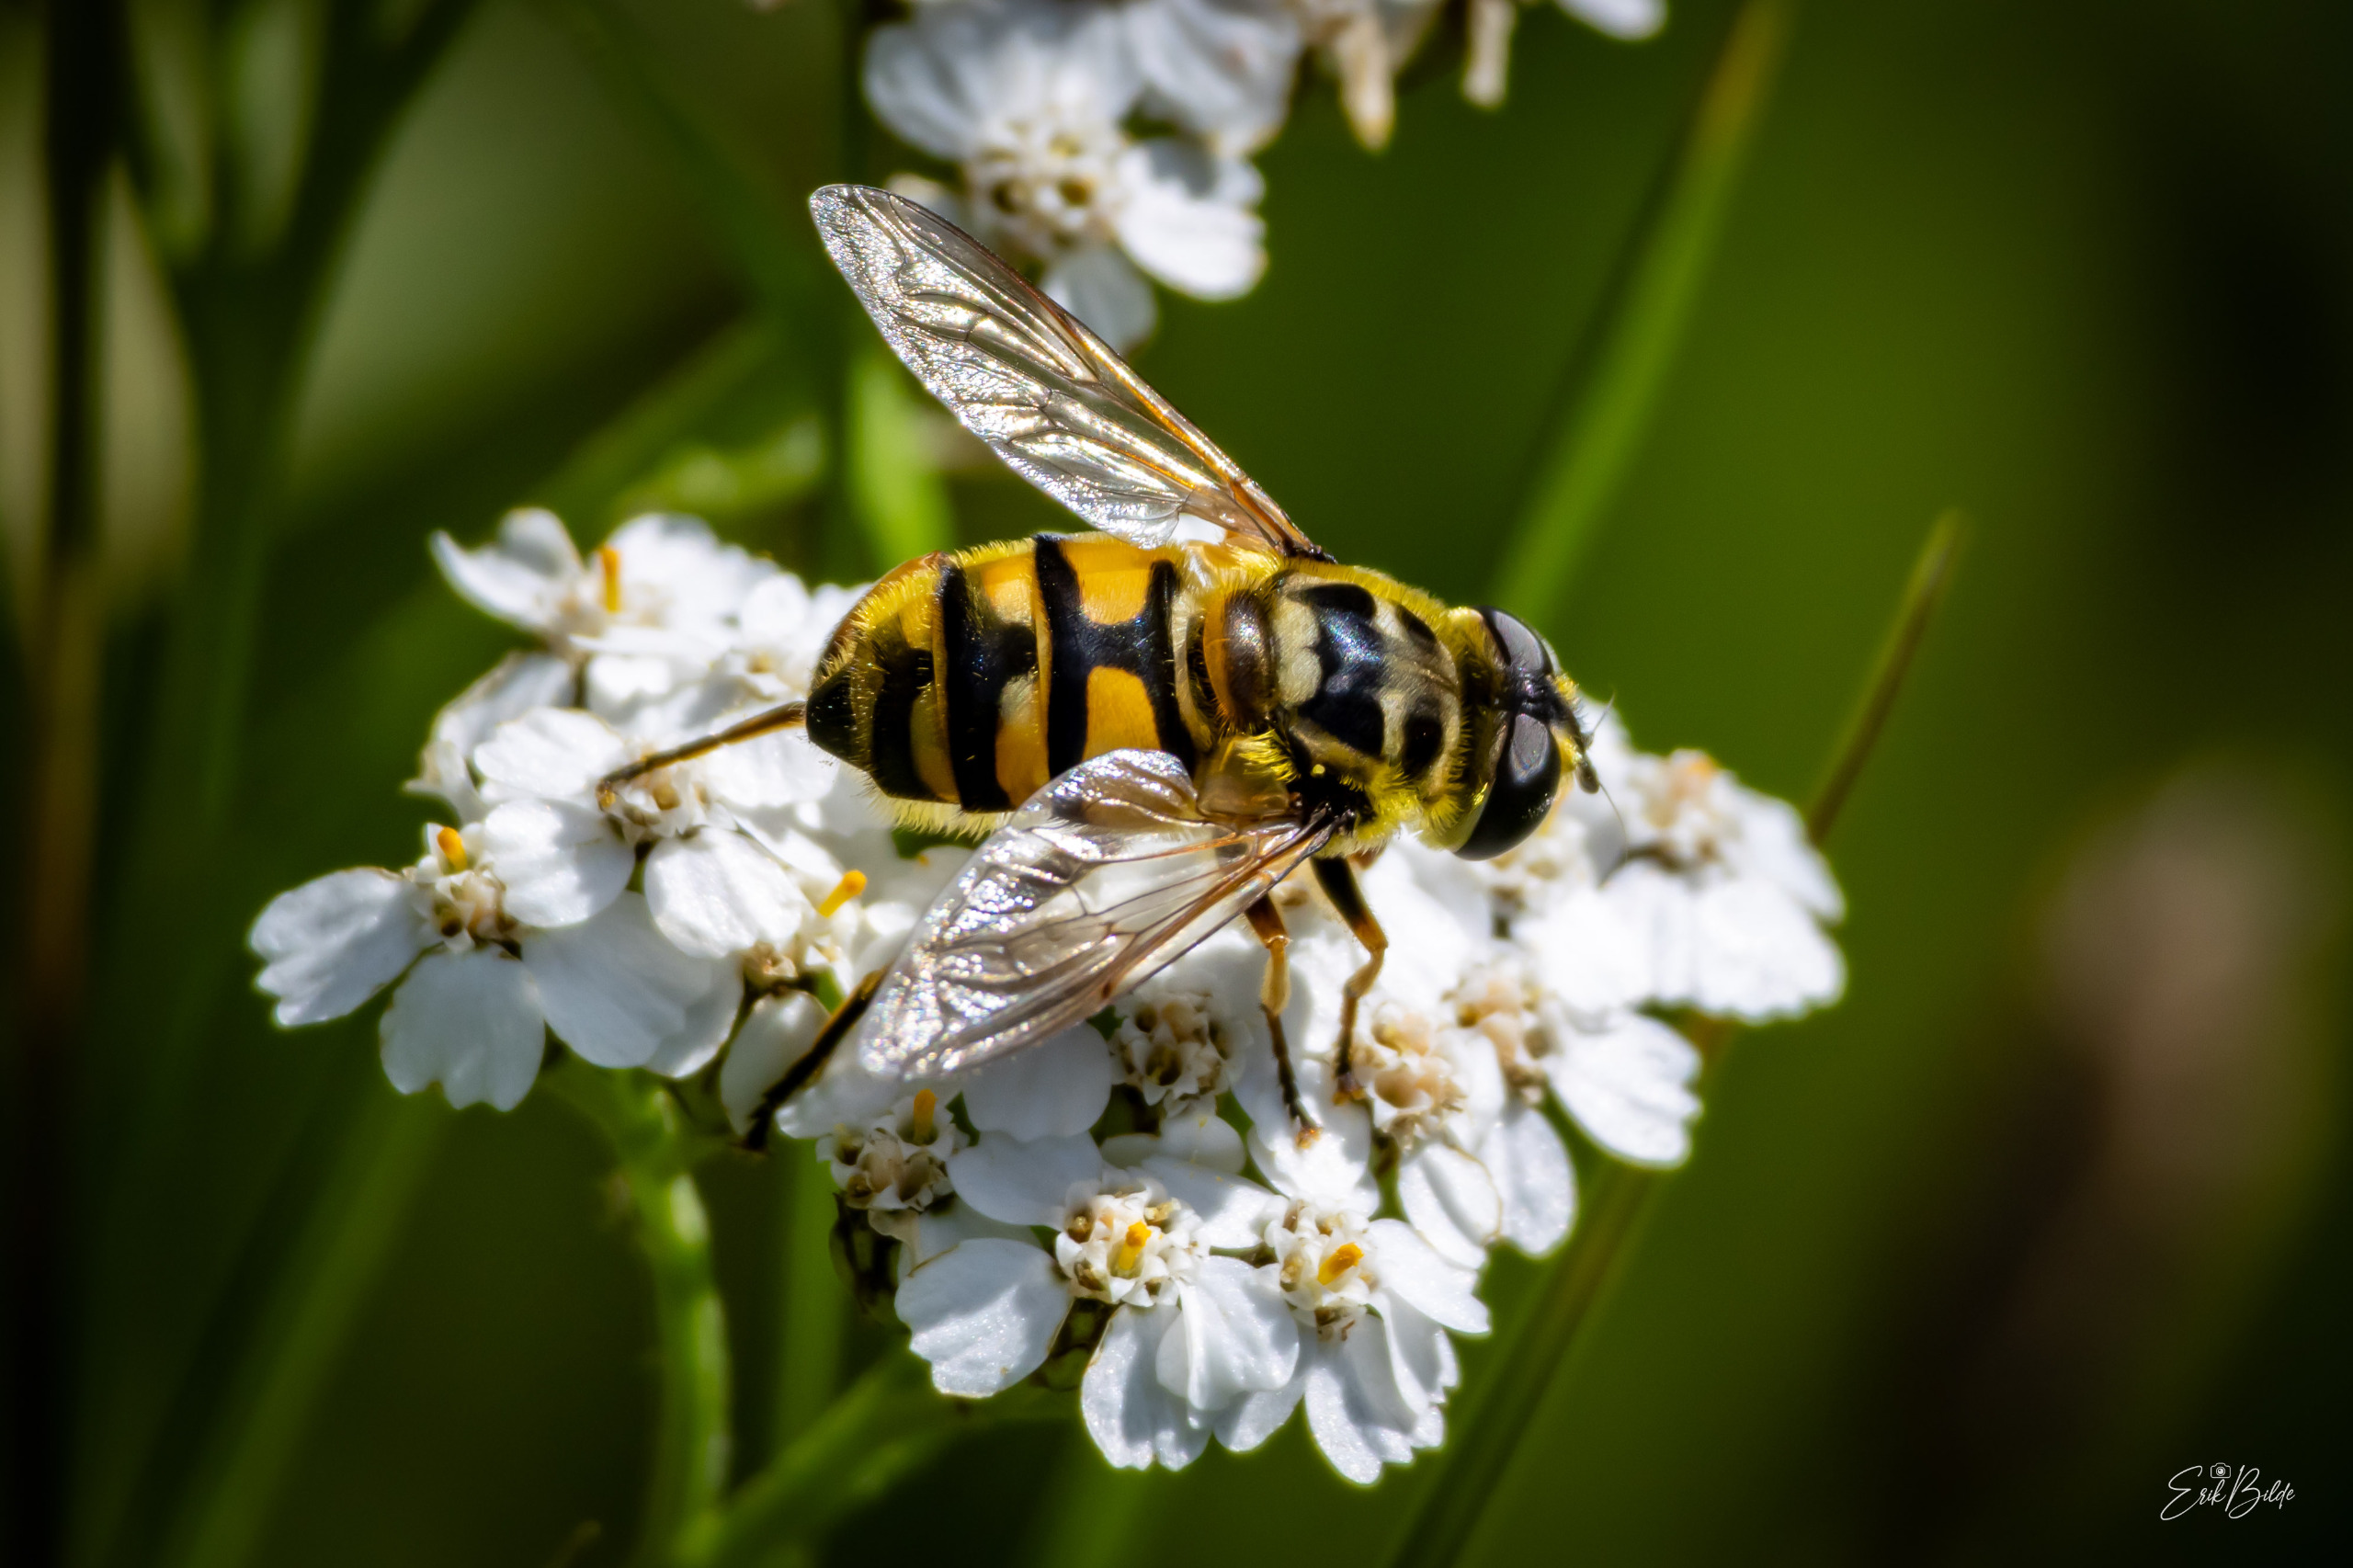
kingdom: Animalia
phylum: Arthropoda
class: Insecta
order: Diptera
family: Syrphidae
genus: Myathropa
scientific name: Myathropa florea
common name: Dødningehoved-svirreflue
